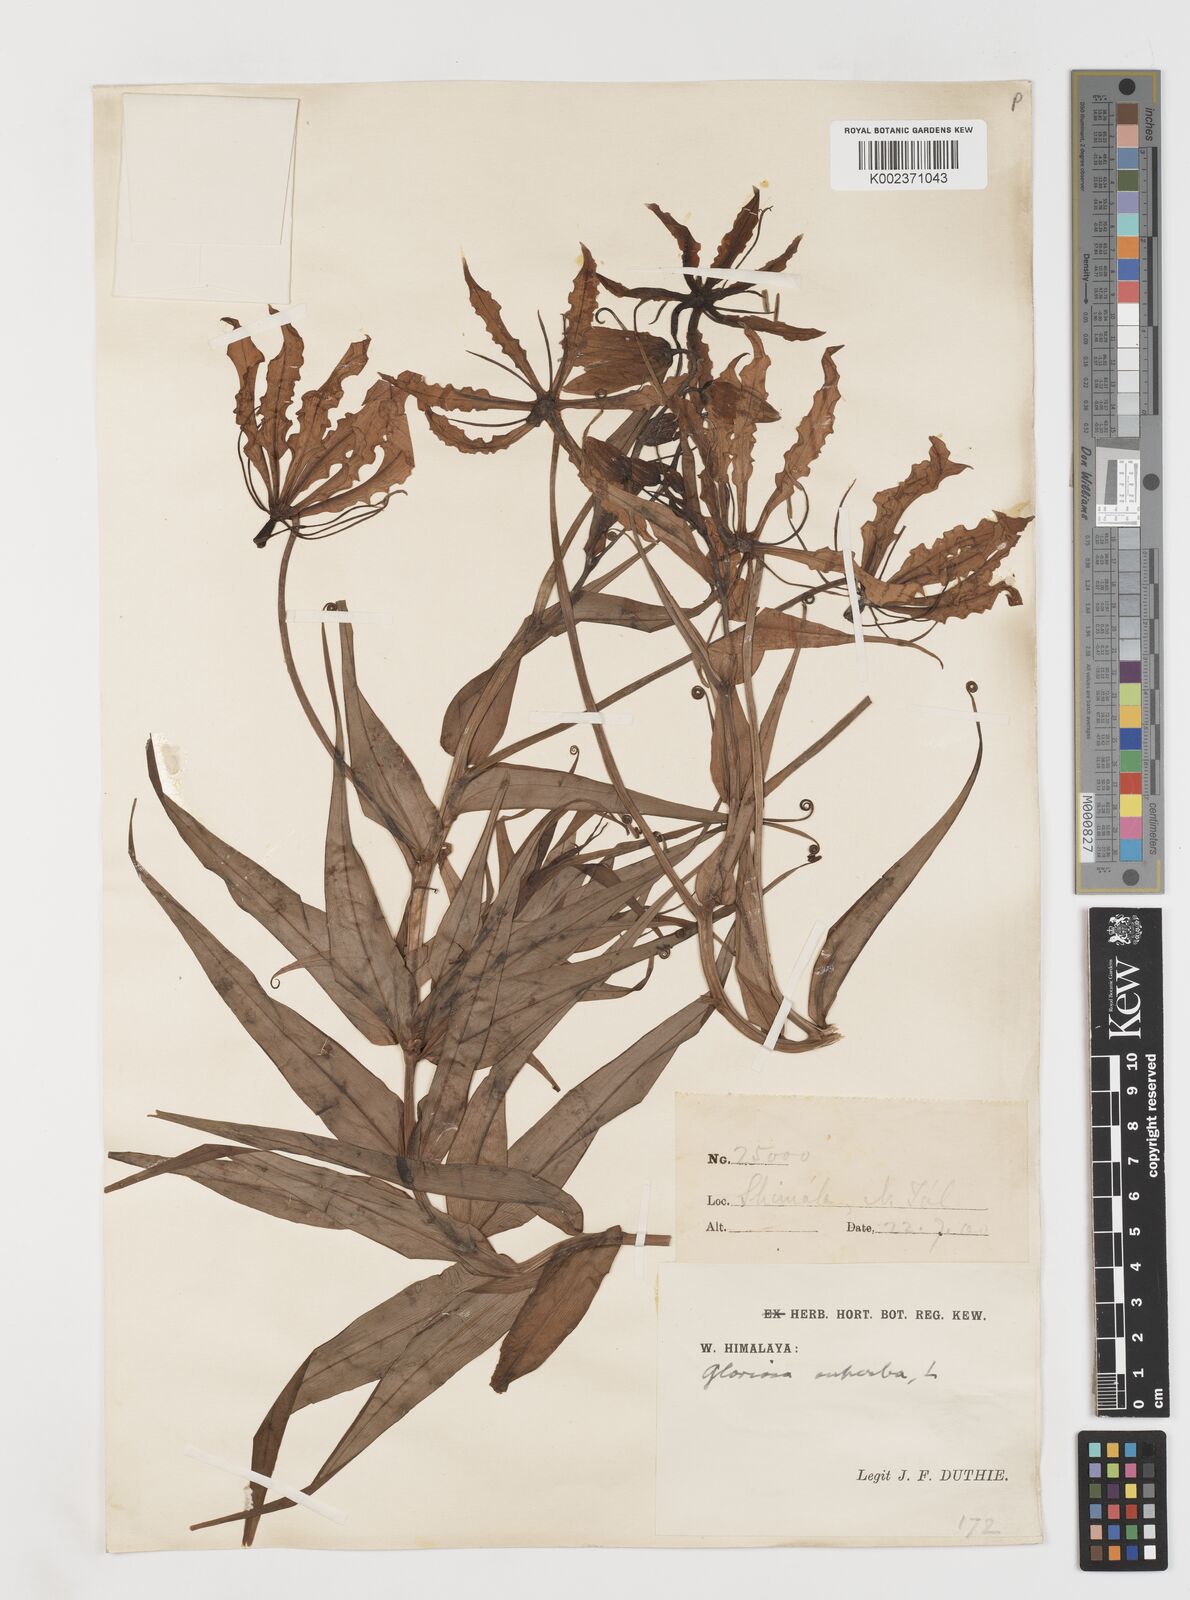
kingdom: Plantae
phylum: Tracheophyta
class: Liliopsida
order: Liliales
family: Colchicaceae
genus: Gloriosa
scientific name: Gloriosa superba
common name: Flame lily
